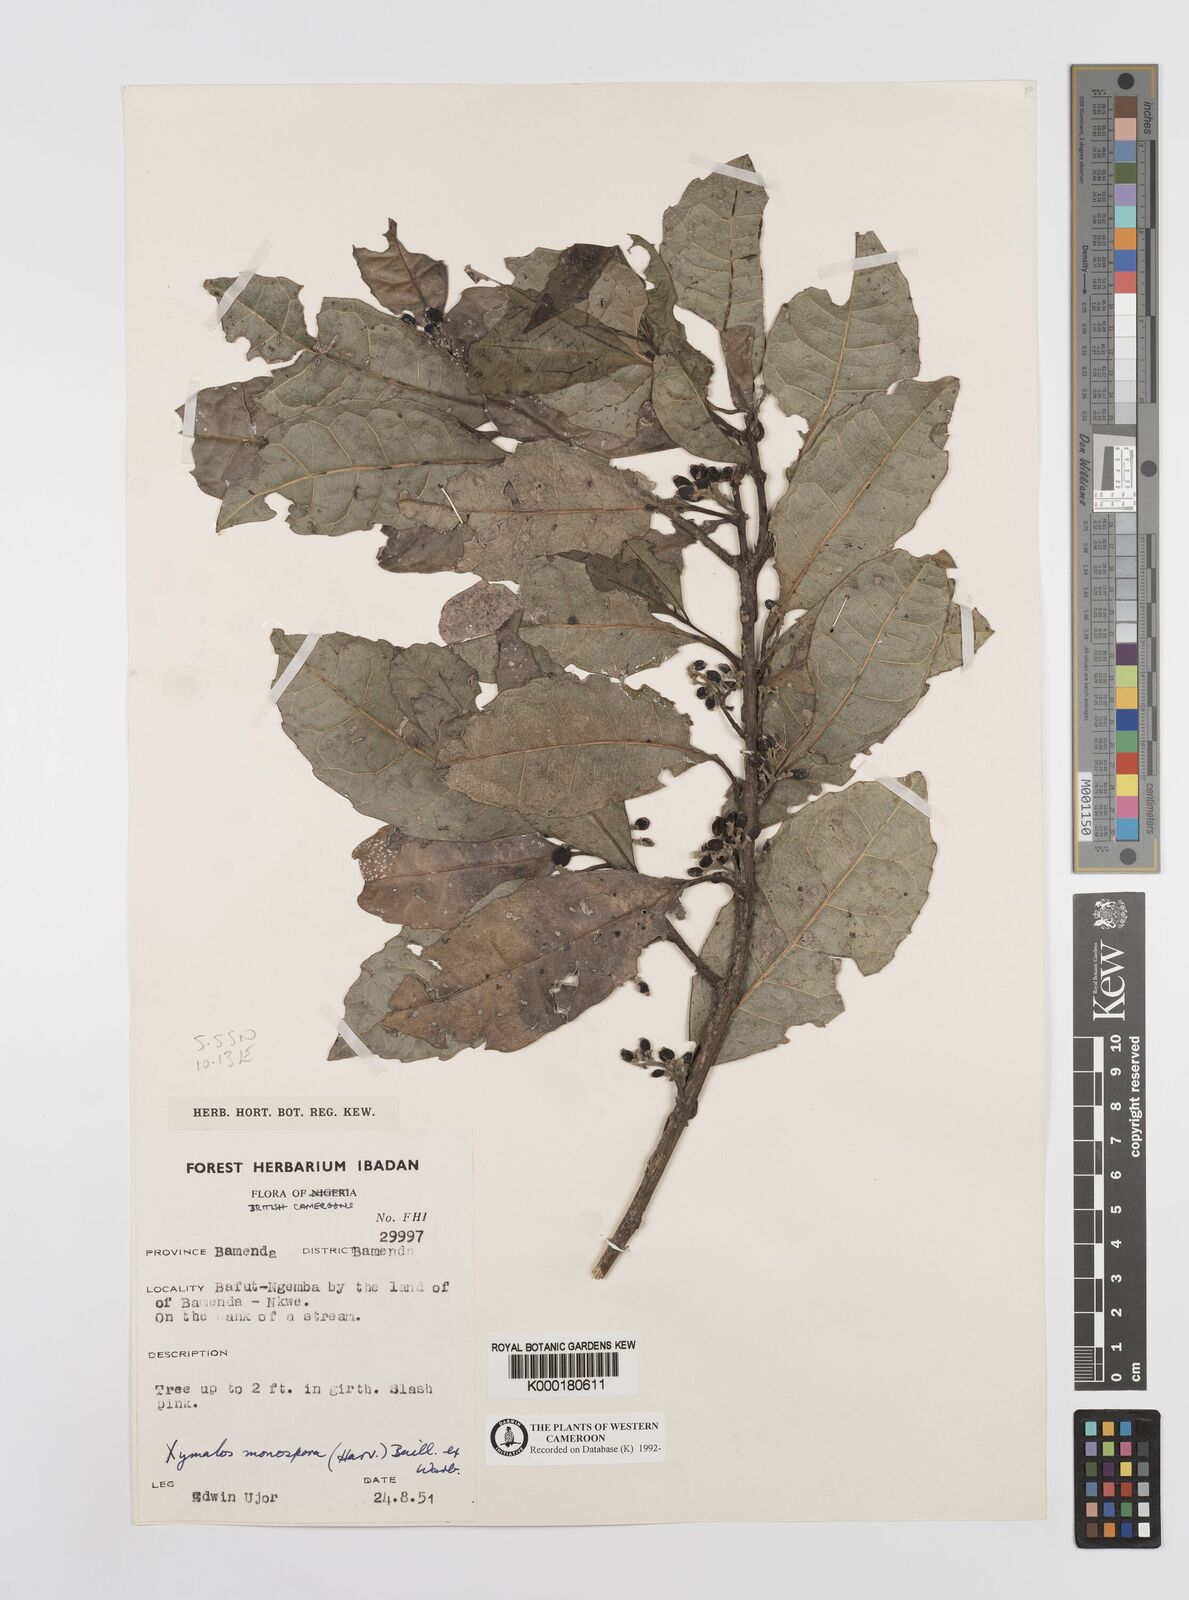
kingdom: Plantae
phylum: Tracheophyta
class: Magnoliopsida
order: Laurales
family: Monimiaceae
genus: Xymalos
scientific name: Xymalos
